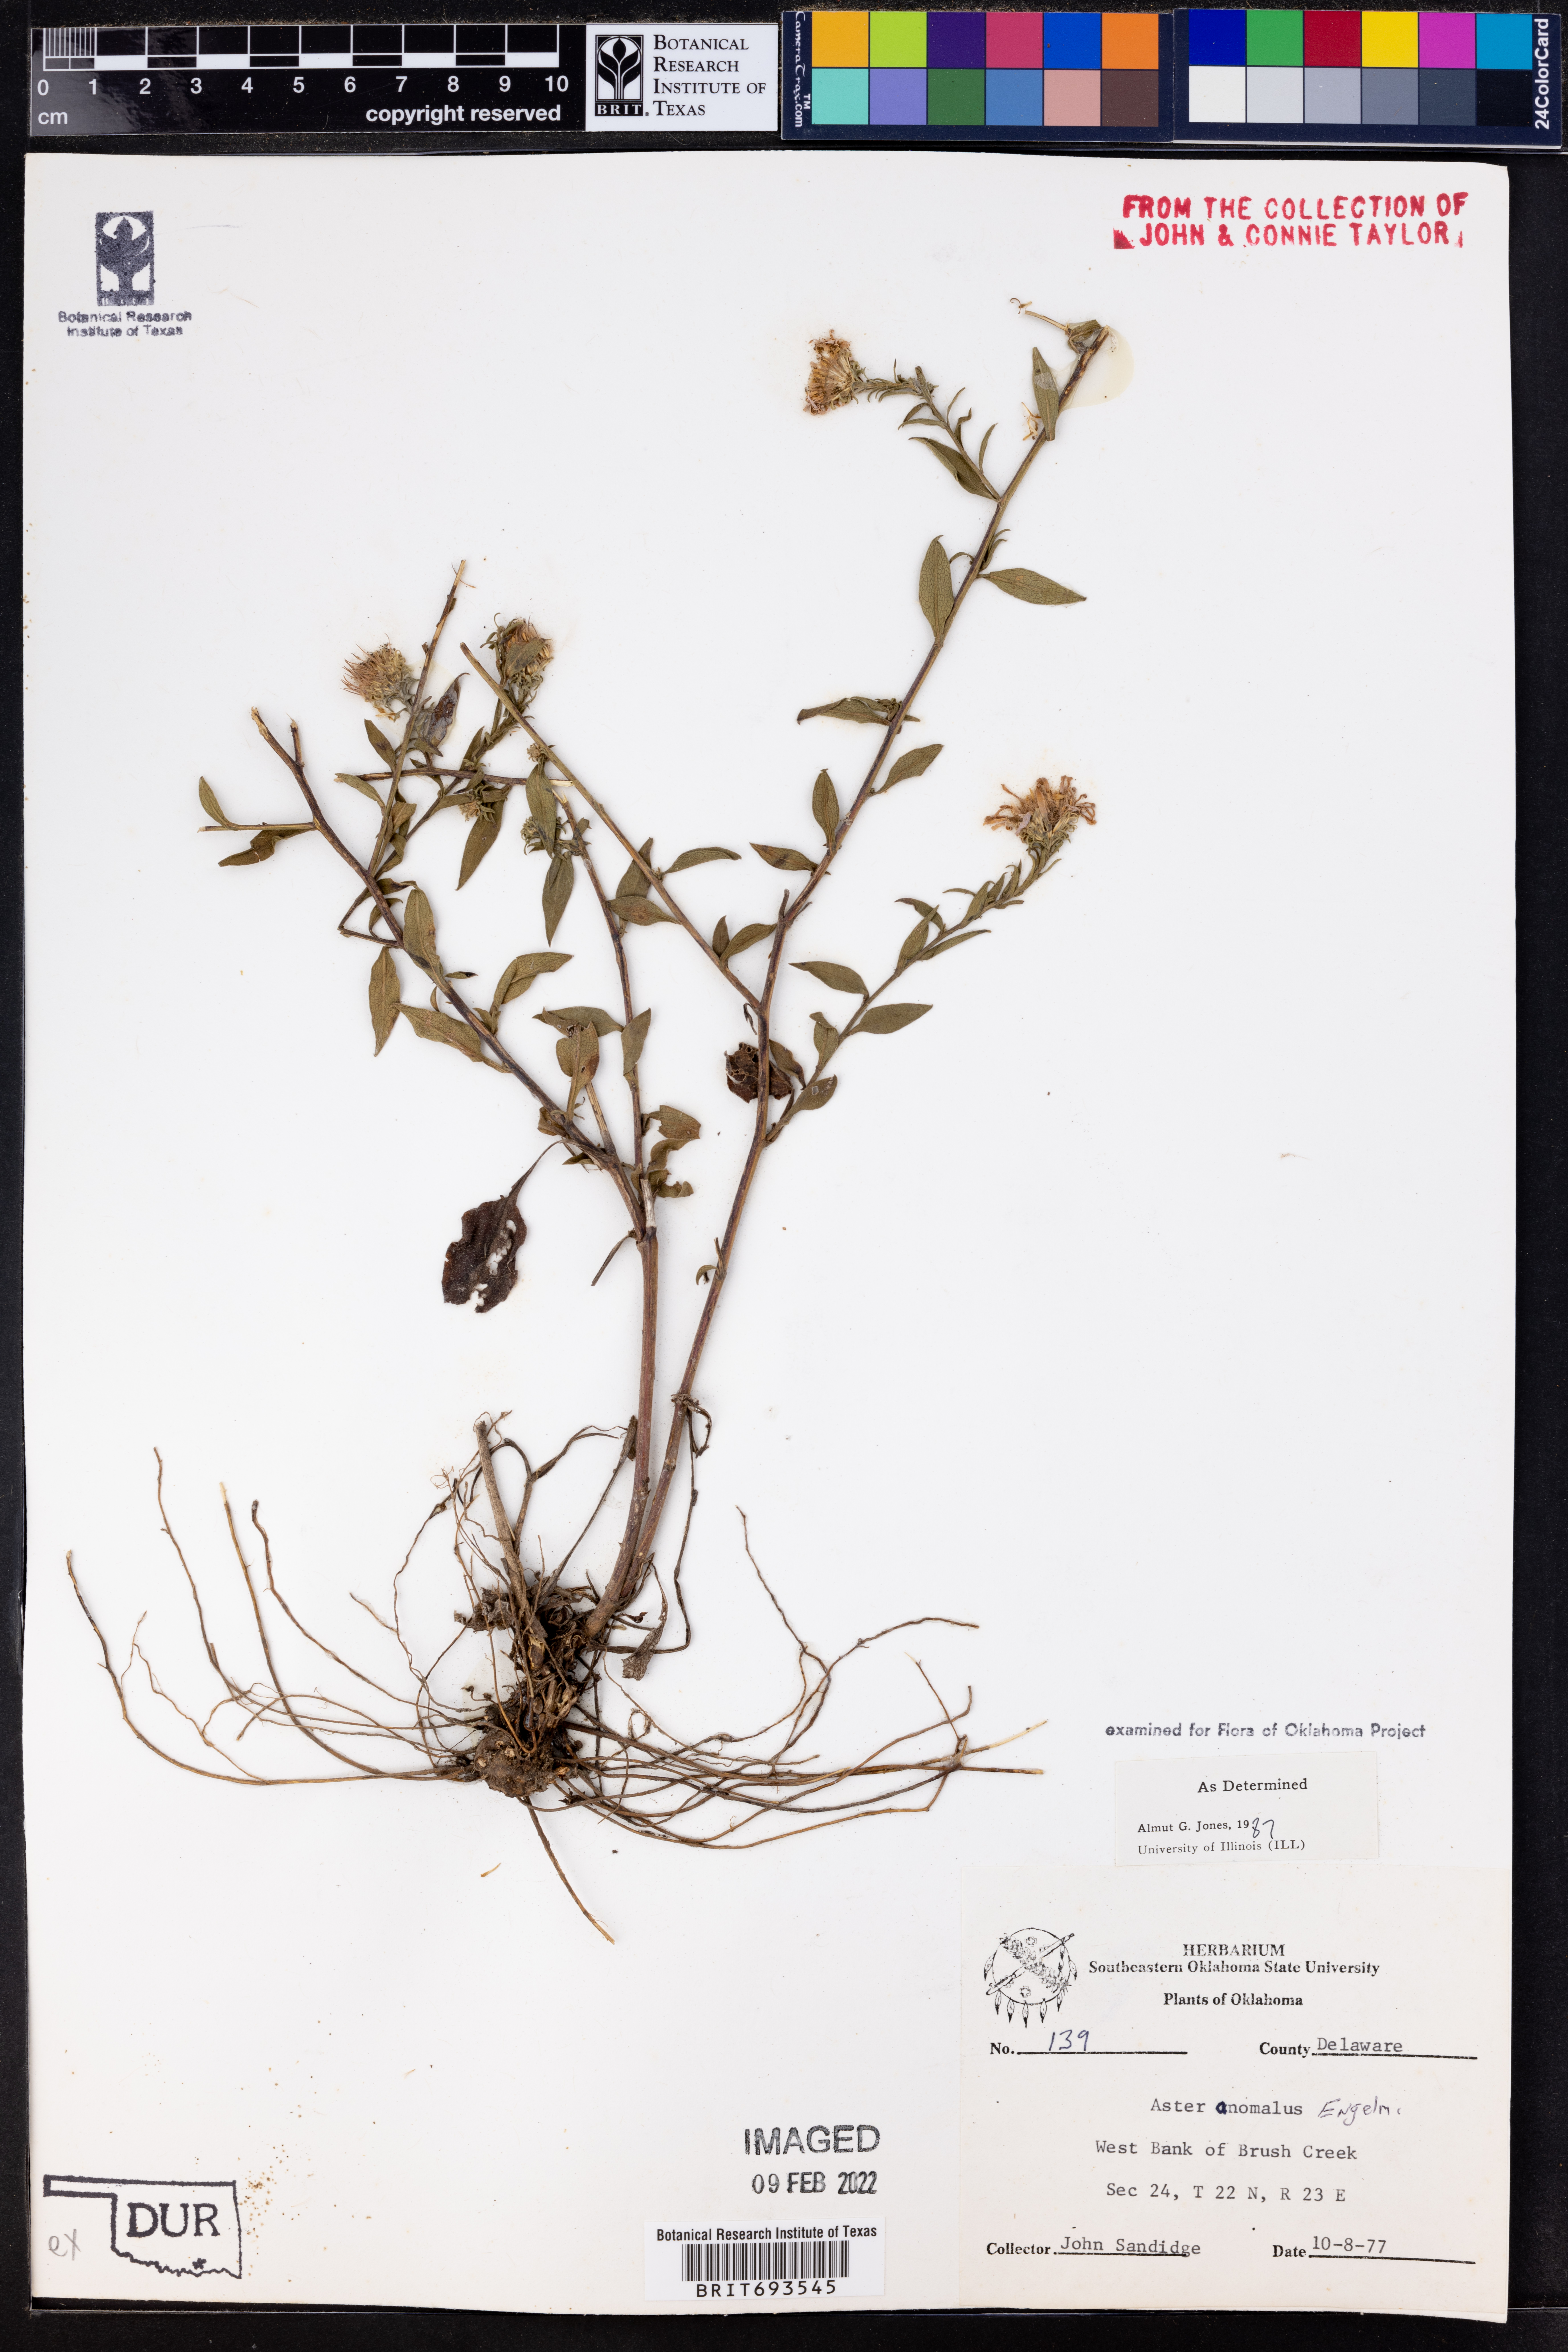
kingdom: Plantae
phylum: Tracheophyta
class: Magnoliopsida
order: Asterales
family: Asteraceae
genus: Symphyotrichum
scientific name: Symphyotrichum anomalum
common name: Many-ray aster
